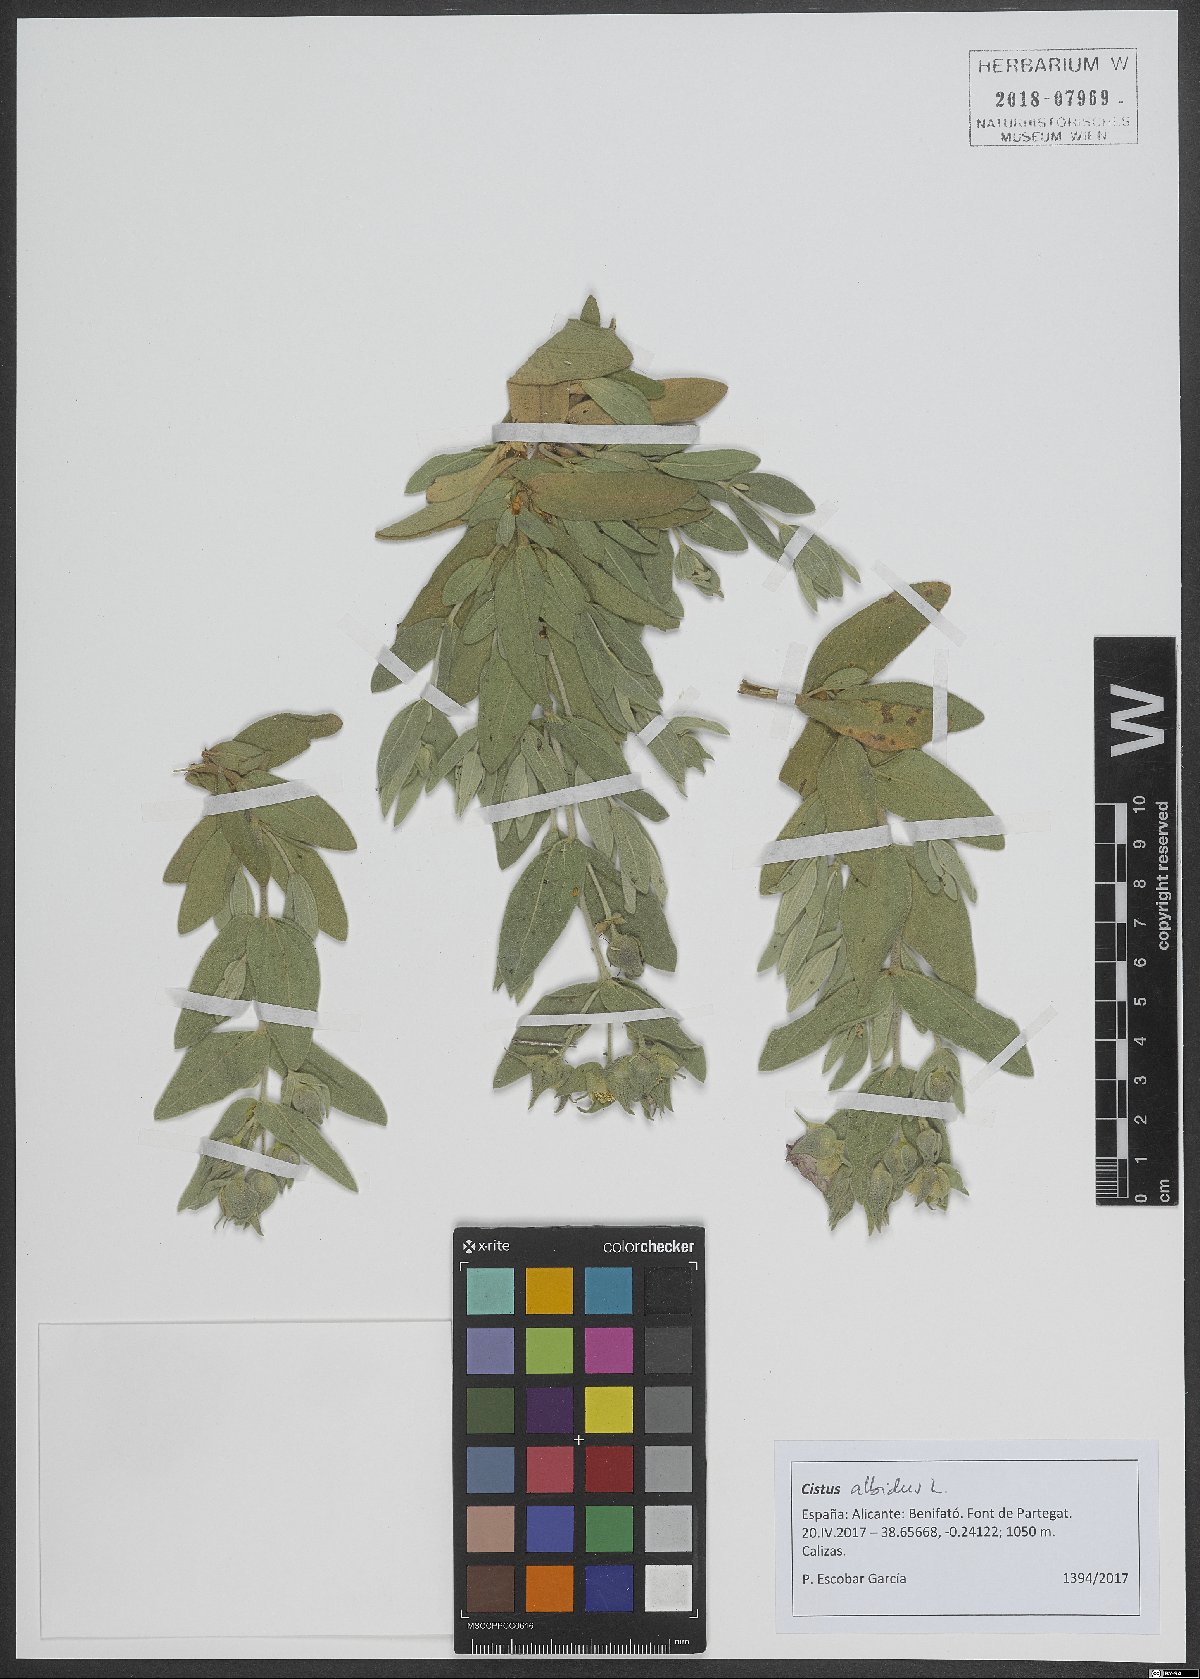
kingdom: Plantae
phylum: Tracheophyta
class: Magnoliopsida
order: Malvales
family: Cistaceae
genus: Cistus
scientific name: Cistus albidus
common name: White-leaf rock-rose
